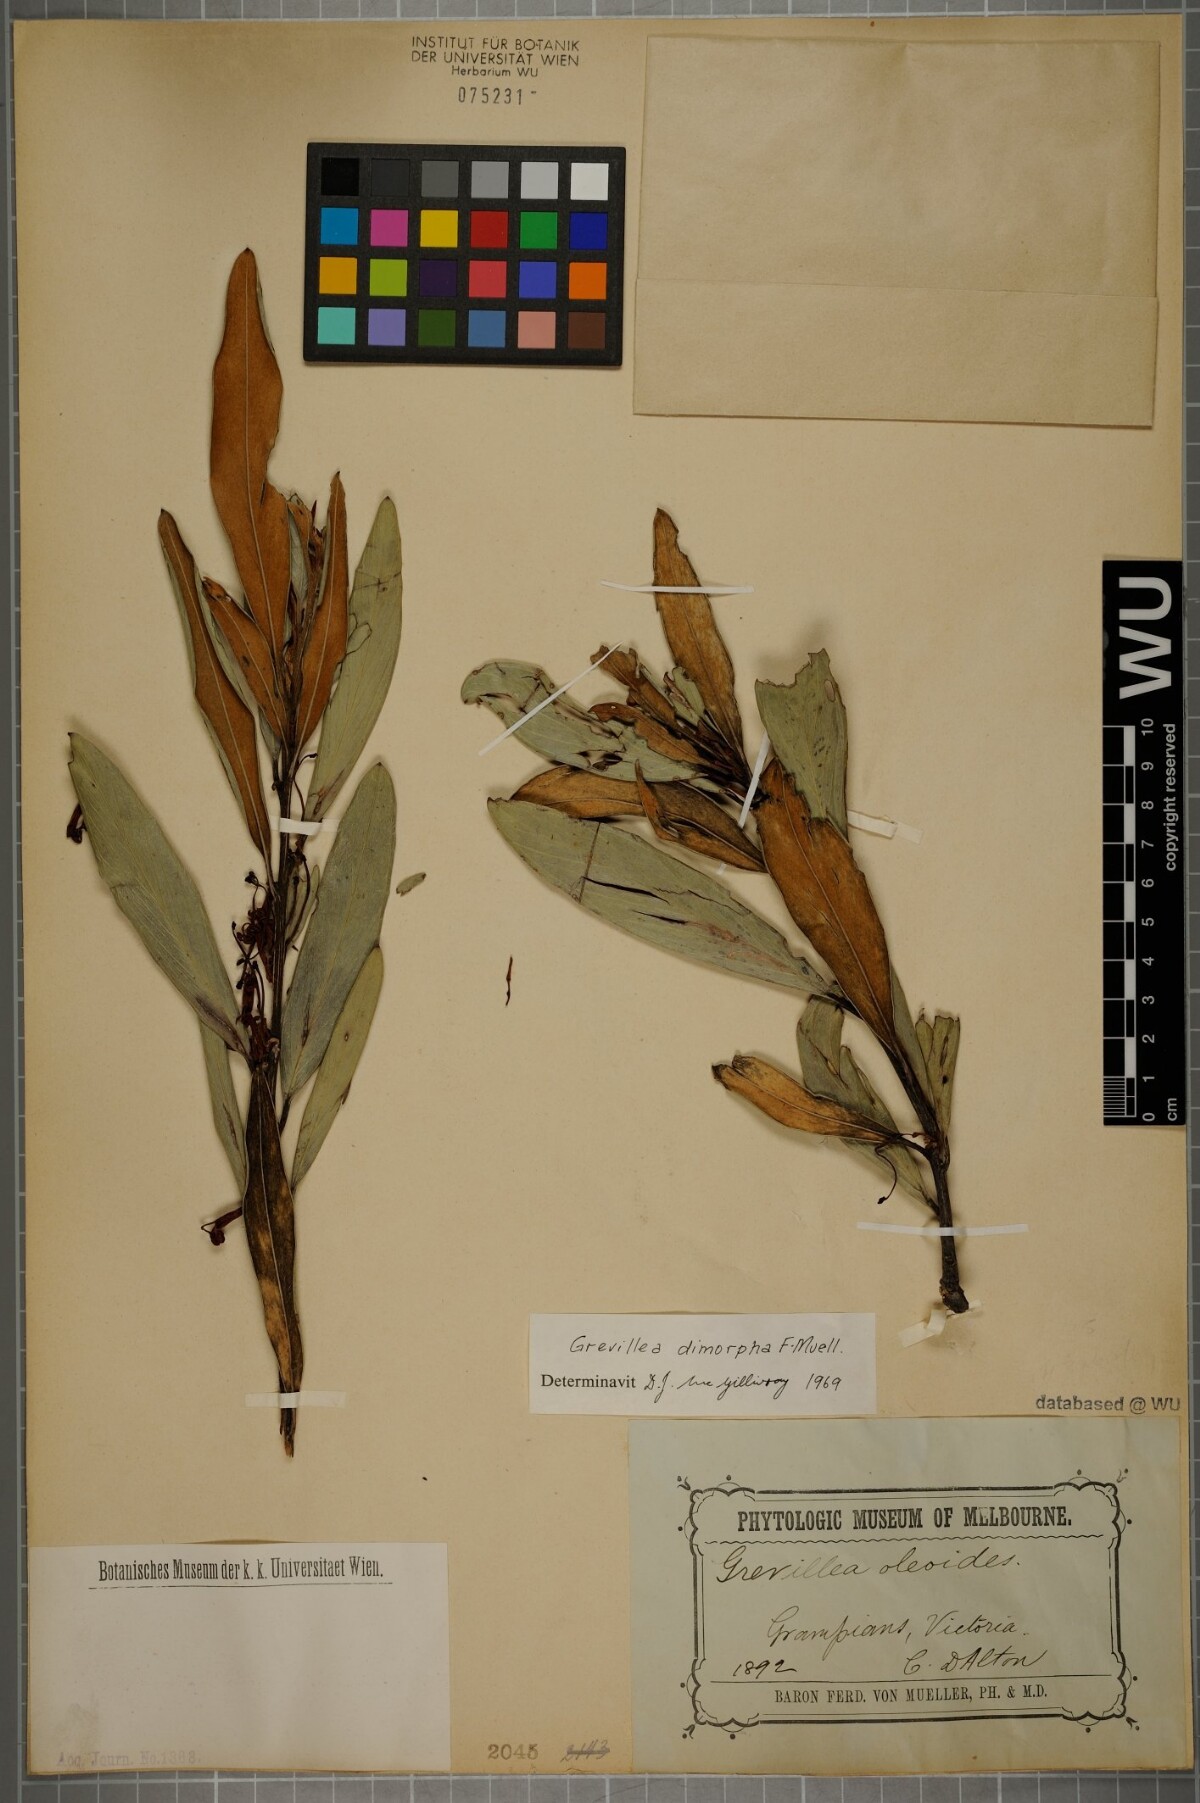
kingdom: Plantae
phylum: Tracheophyta
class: Magnoliopsida
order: Proteales
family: Proteaceae
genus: Grevillea
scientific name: Grevillea dimorpha
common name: Flame grevillea
